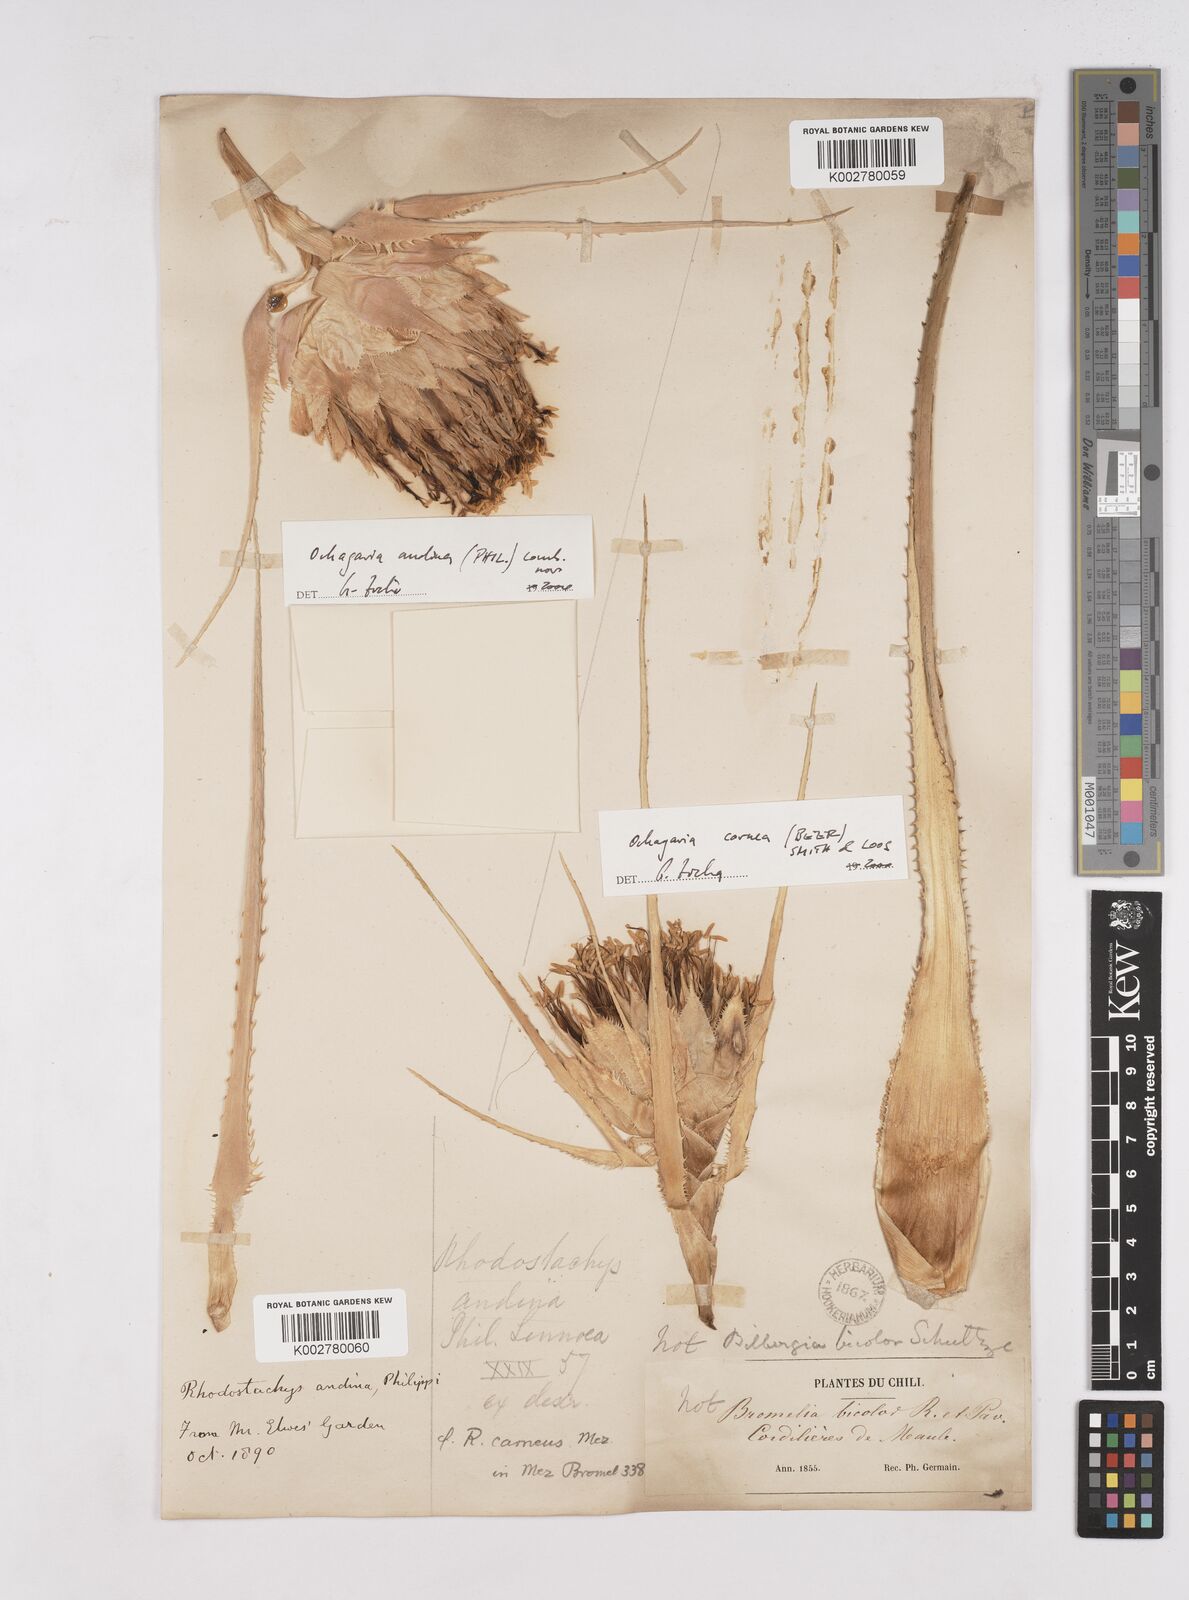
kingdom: Plantae
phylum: Tracheophyta
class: Liliopsida
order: Poales
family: Bromeliaceae
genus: Ochagavia
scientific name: Ochagavia carnea
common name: Tresco rhodostachys
